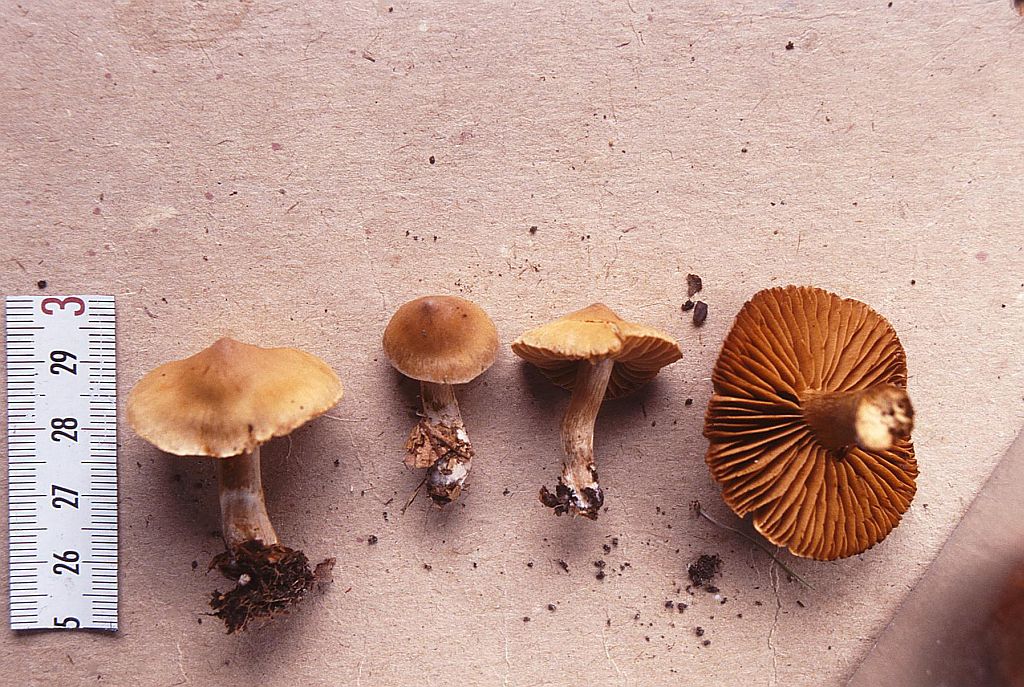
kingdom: Fungi
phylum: Basidiomycota
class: Agaricomycetes
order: Agaricales
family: Cortinariaceae
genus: Cortinarius
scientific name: Cortinarius epipurrus
